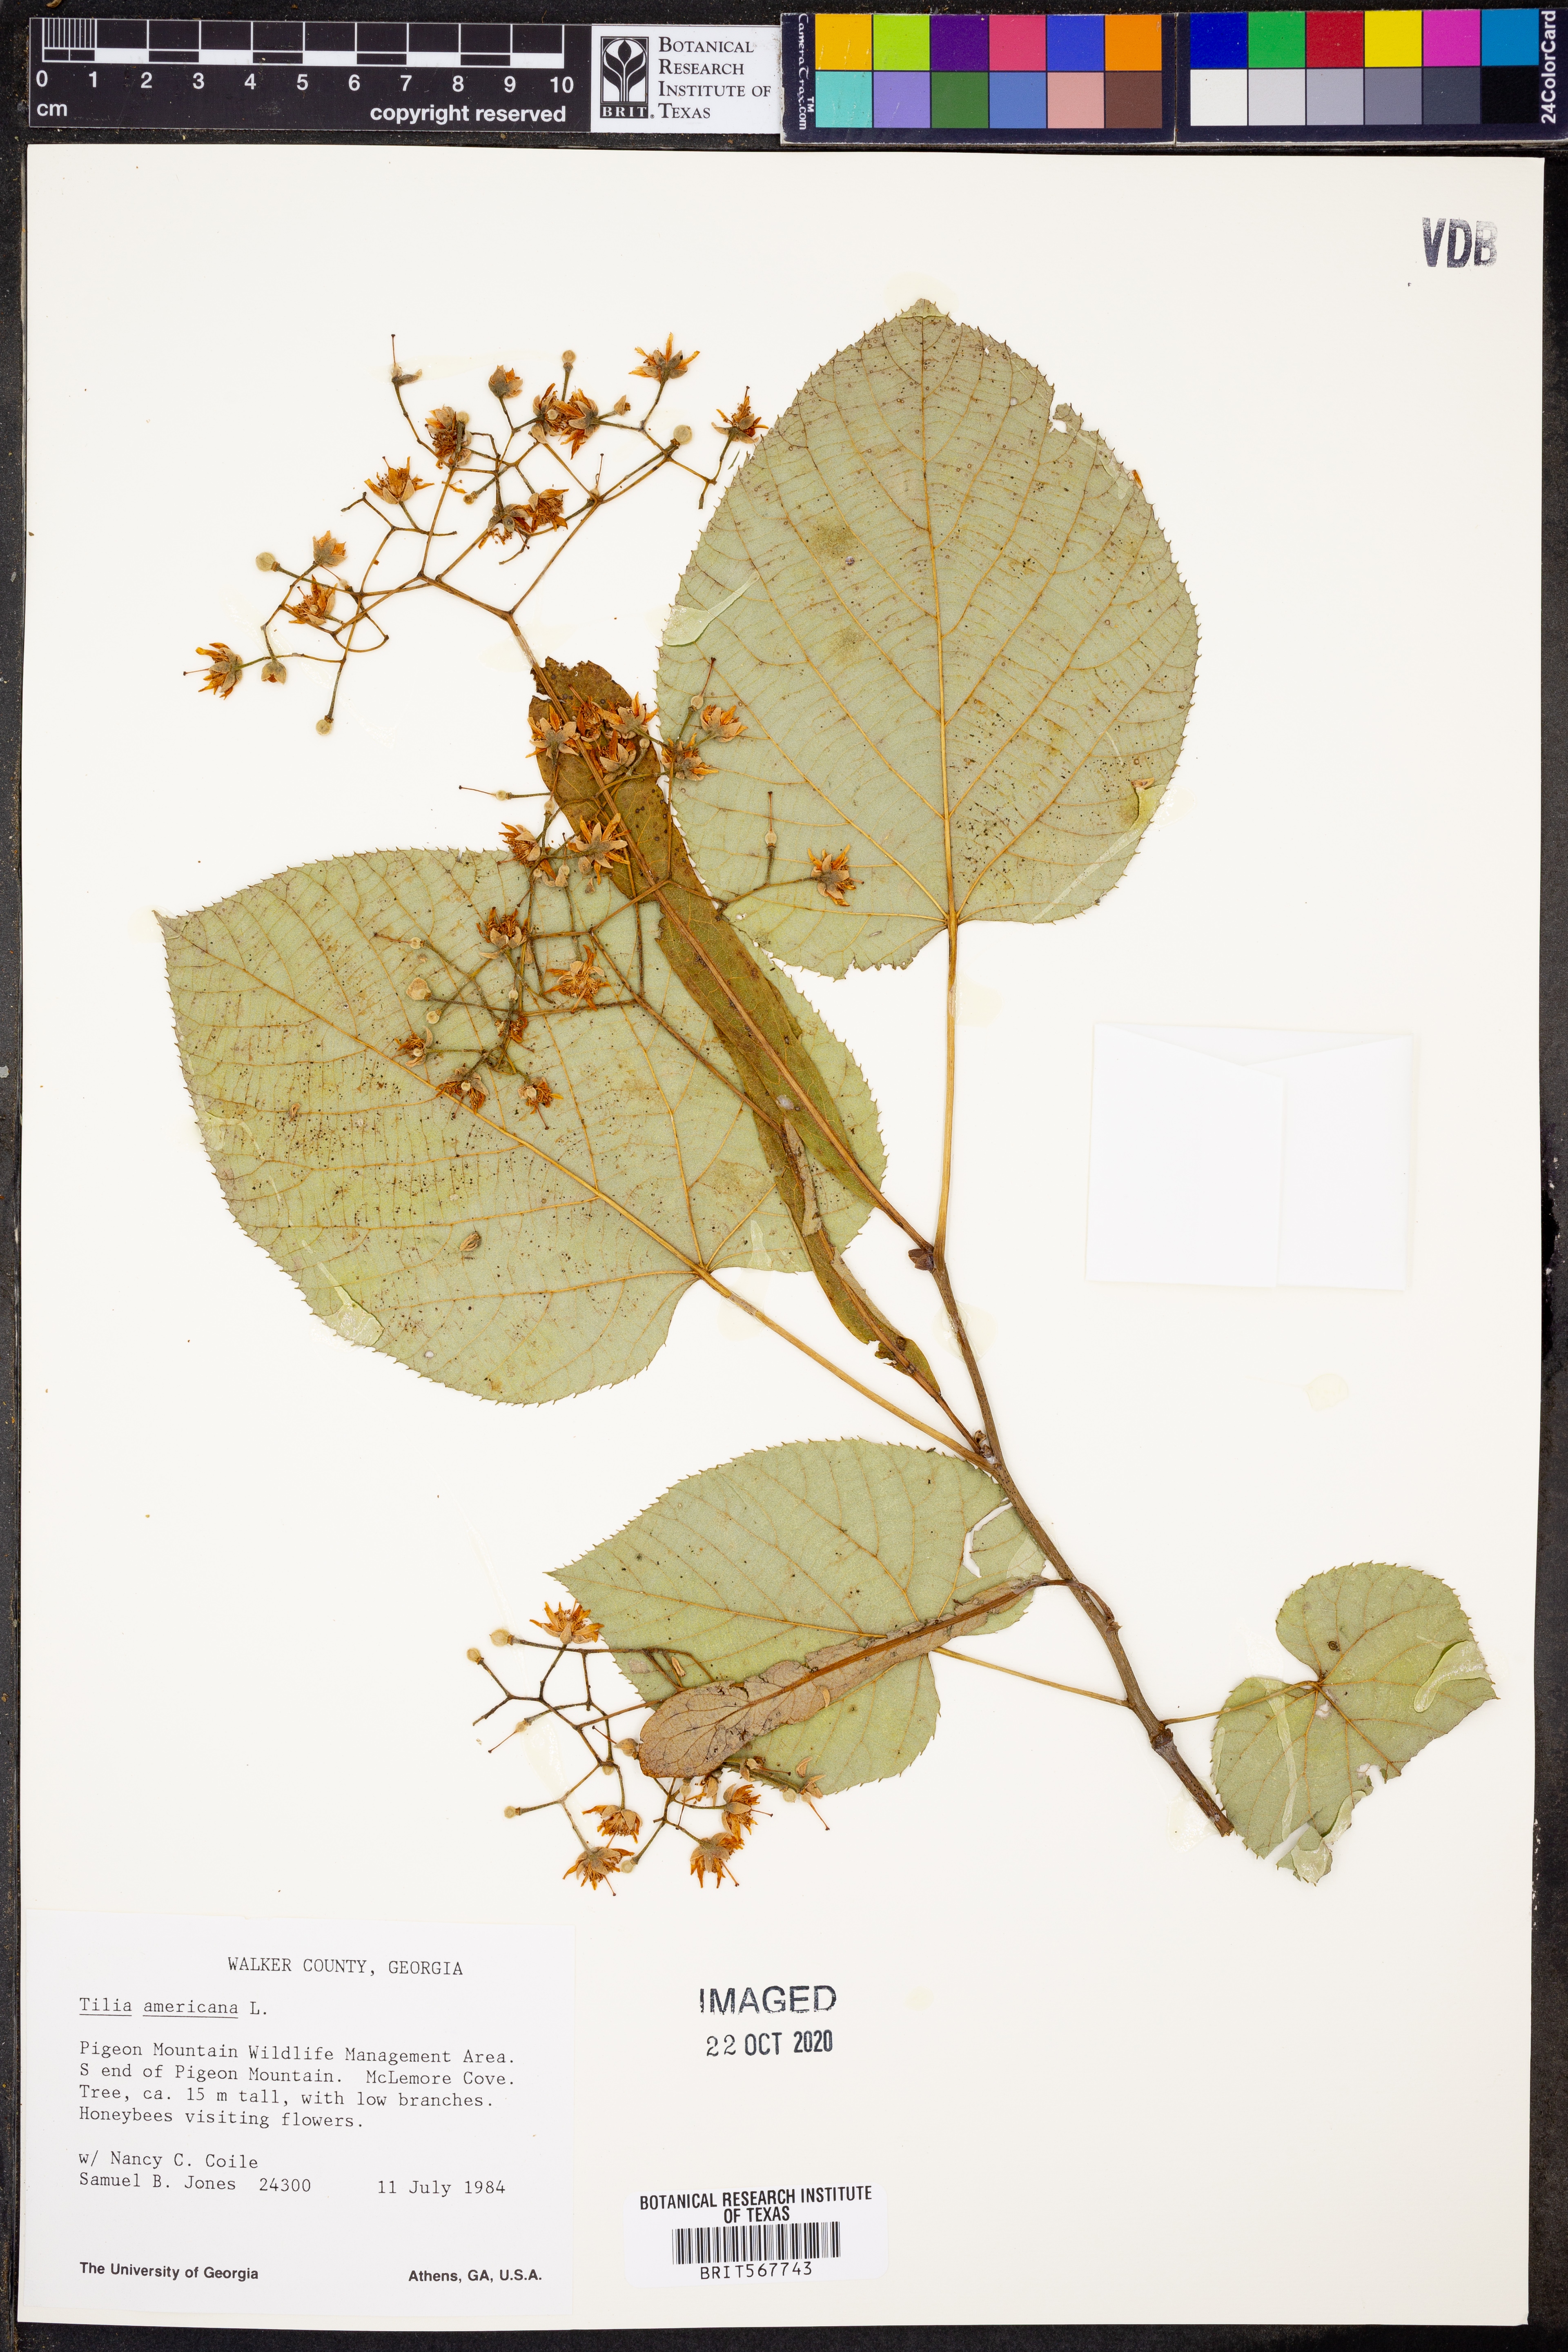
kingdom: Plantae
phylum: Tracheophyta
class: Magnoliopsida
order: Malvales
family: Malvaceae
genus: Tilia
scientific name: Tilia americana
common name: Basswood
